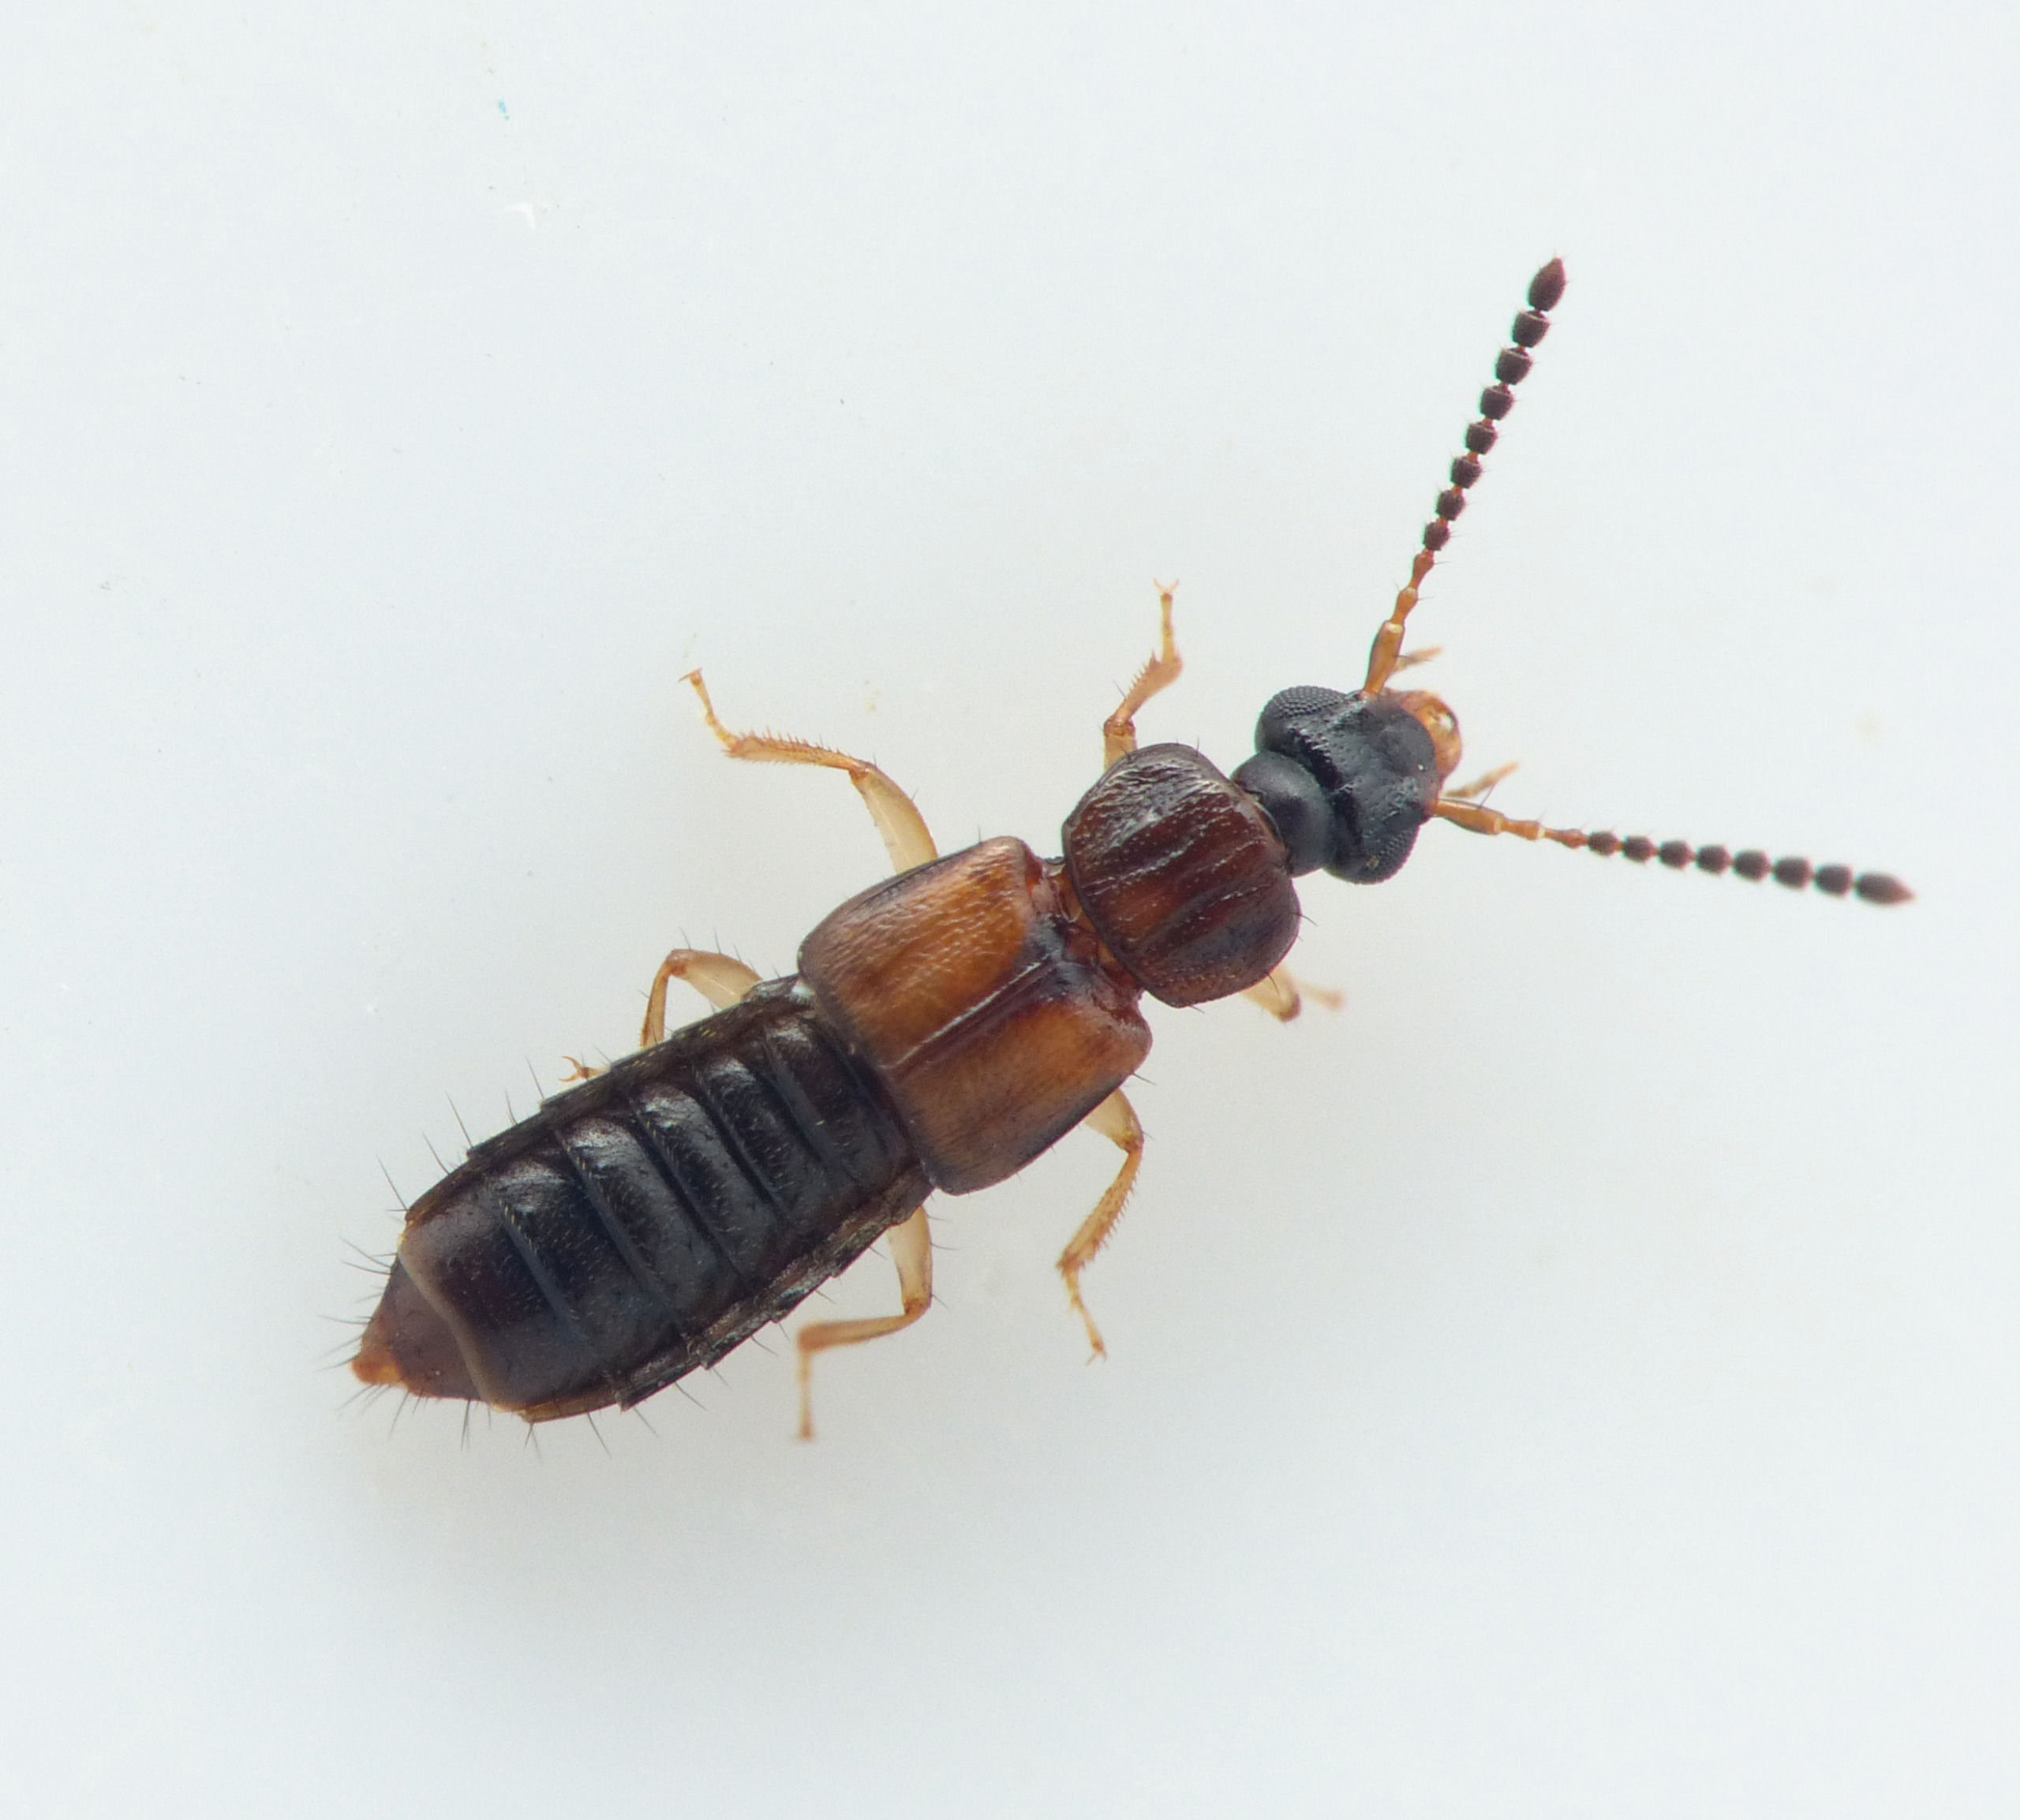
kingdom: Animalia
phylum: Arthropoda
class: Insecta
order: Coleoptera
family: Staphylinidae
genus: Oxytelus
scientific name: Oxytelus sculptus
